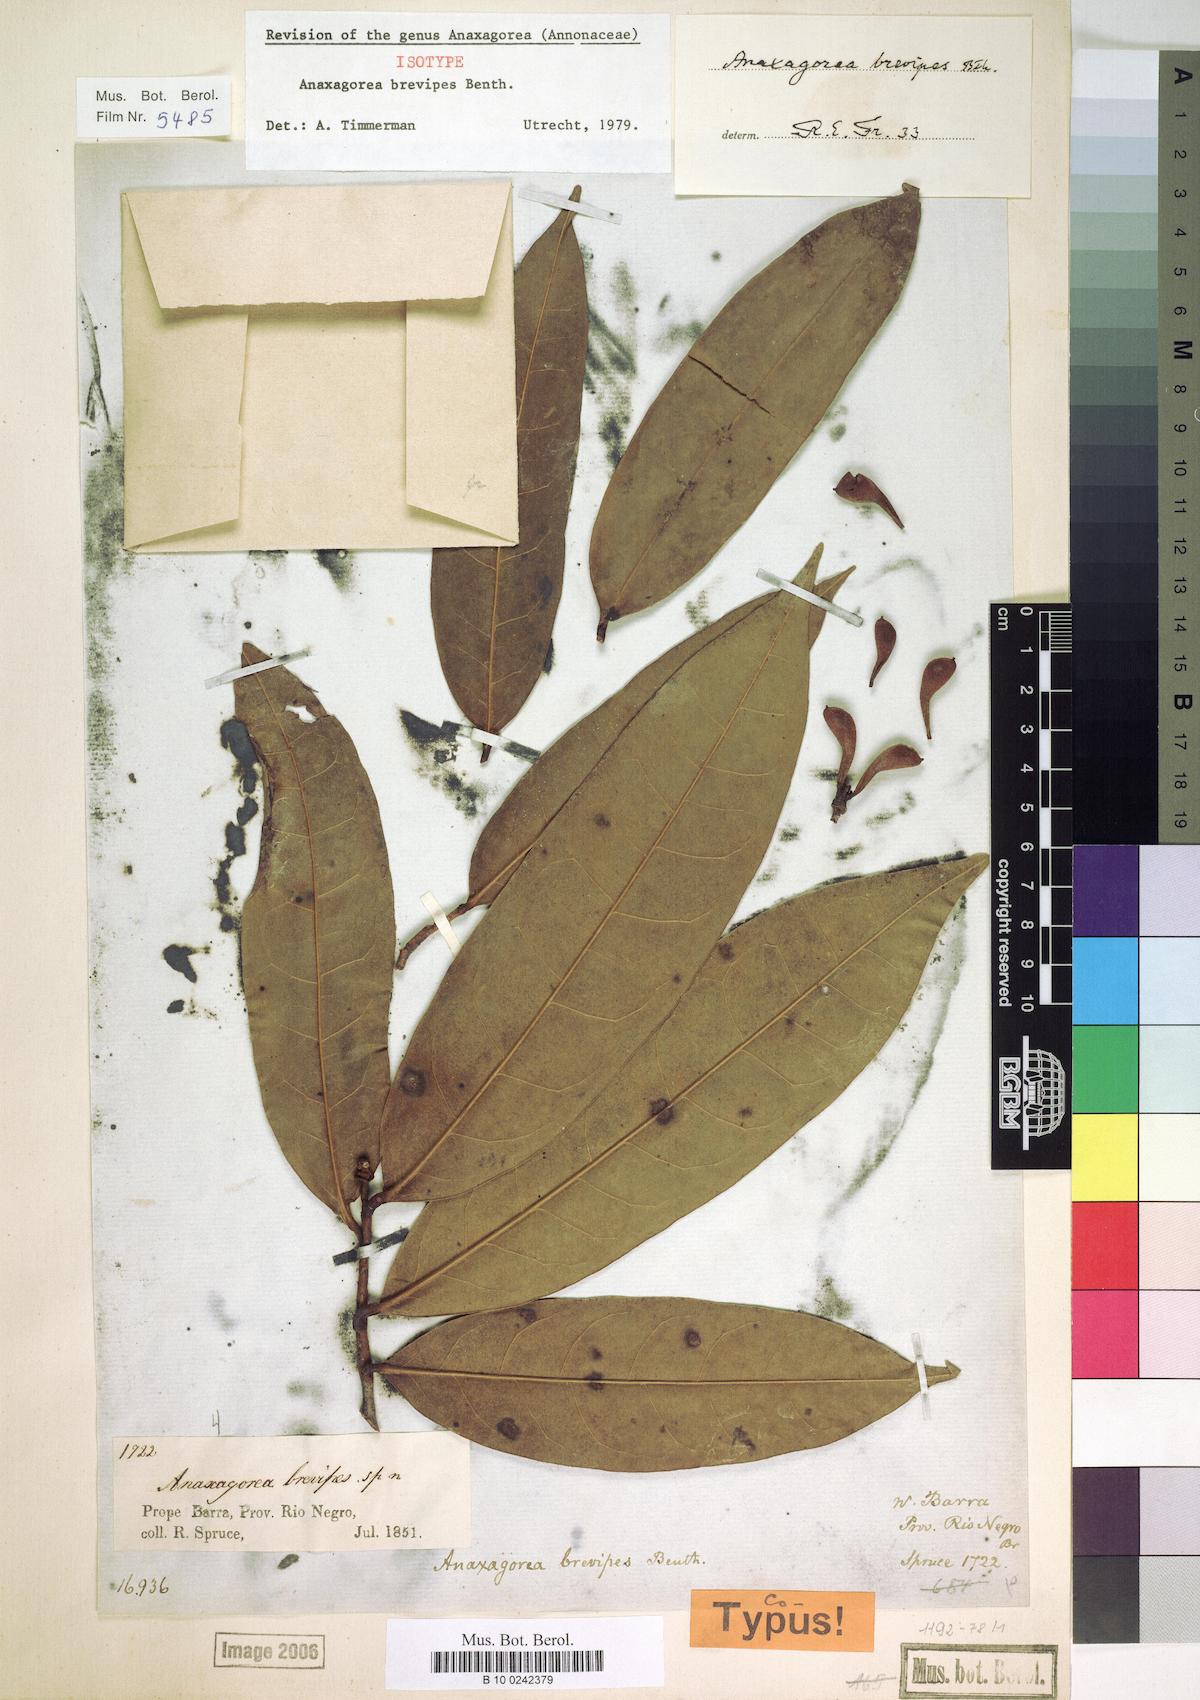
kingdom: Plantae
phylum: Tracheophyta
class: Magnoliopsida
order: Magnoliales
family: Annonaceae
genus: Anaxagorea
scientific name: Anaxagorea brevipes
